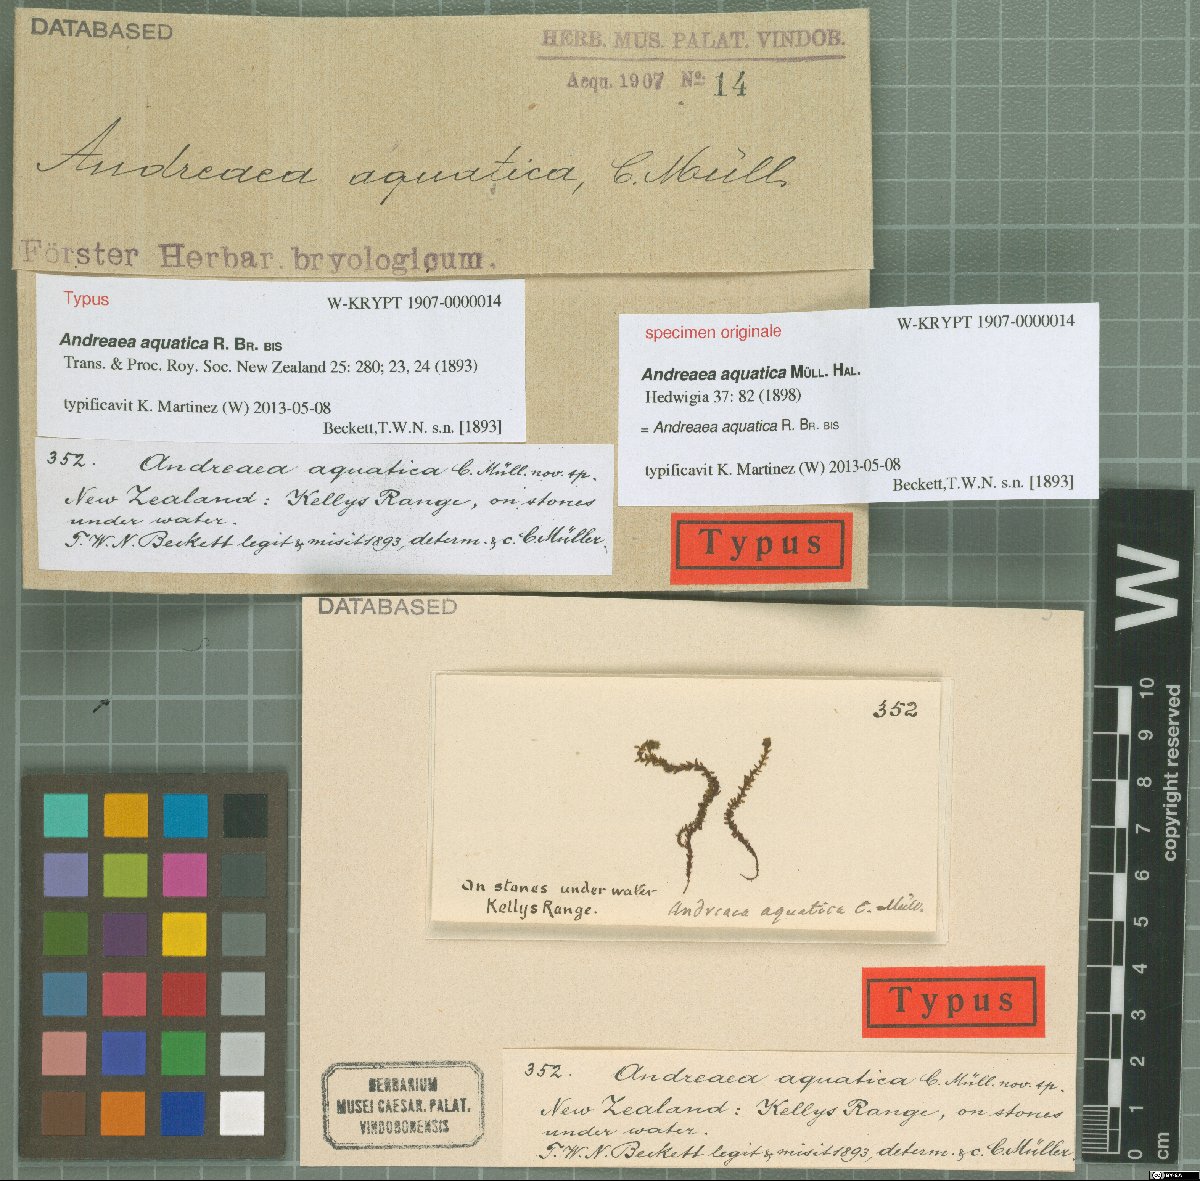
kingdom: Plantae
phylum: Bryophyta
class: Andreaeopsida
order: Andreaeales
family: Andreaeaceae
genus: Andreaea
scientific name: Andreaea nitida
